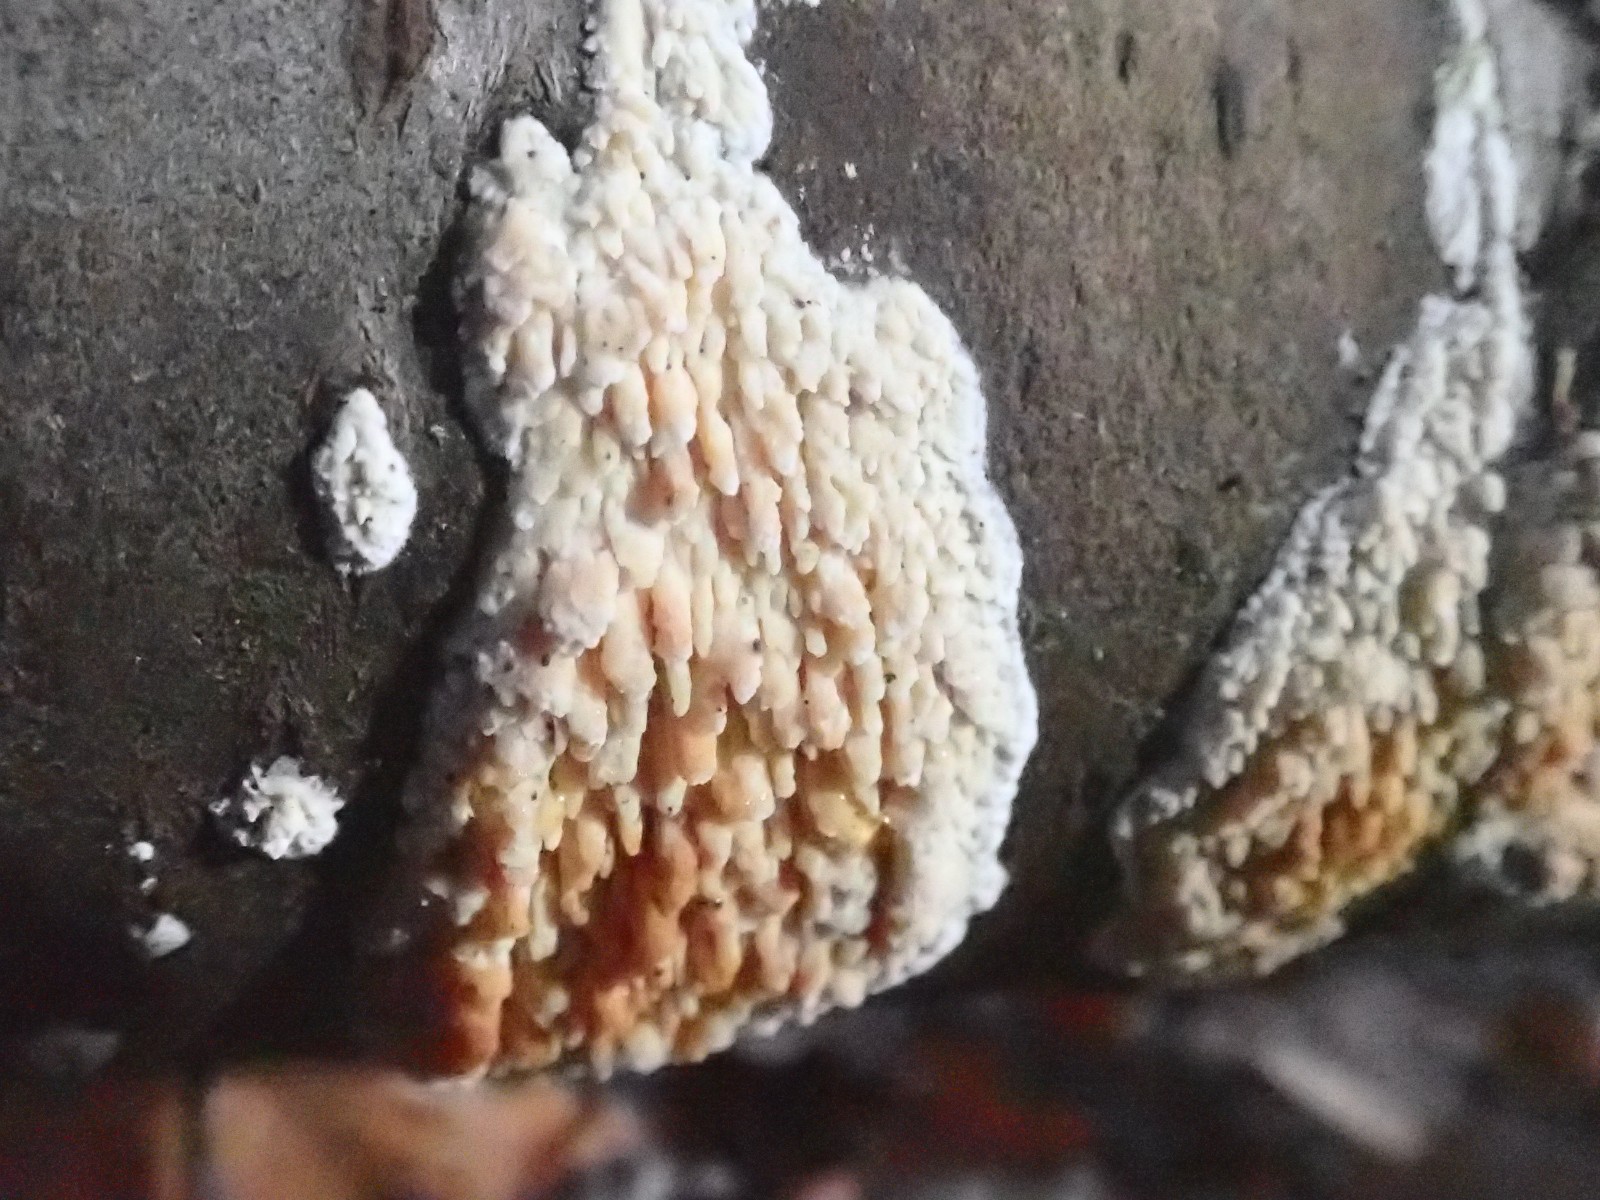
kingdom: Fungi
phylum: Basidiomycota
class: Agaricomycetes
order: Hymenochaetales
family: Schizoporaceae
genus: Xylodon
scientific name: Xylodon radula
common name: grovtandet kalkskind
